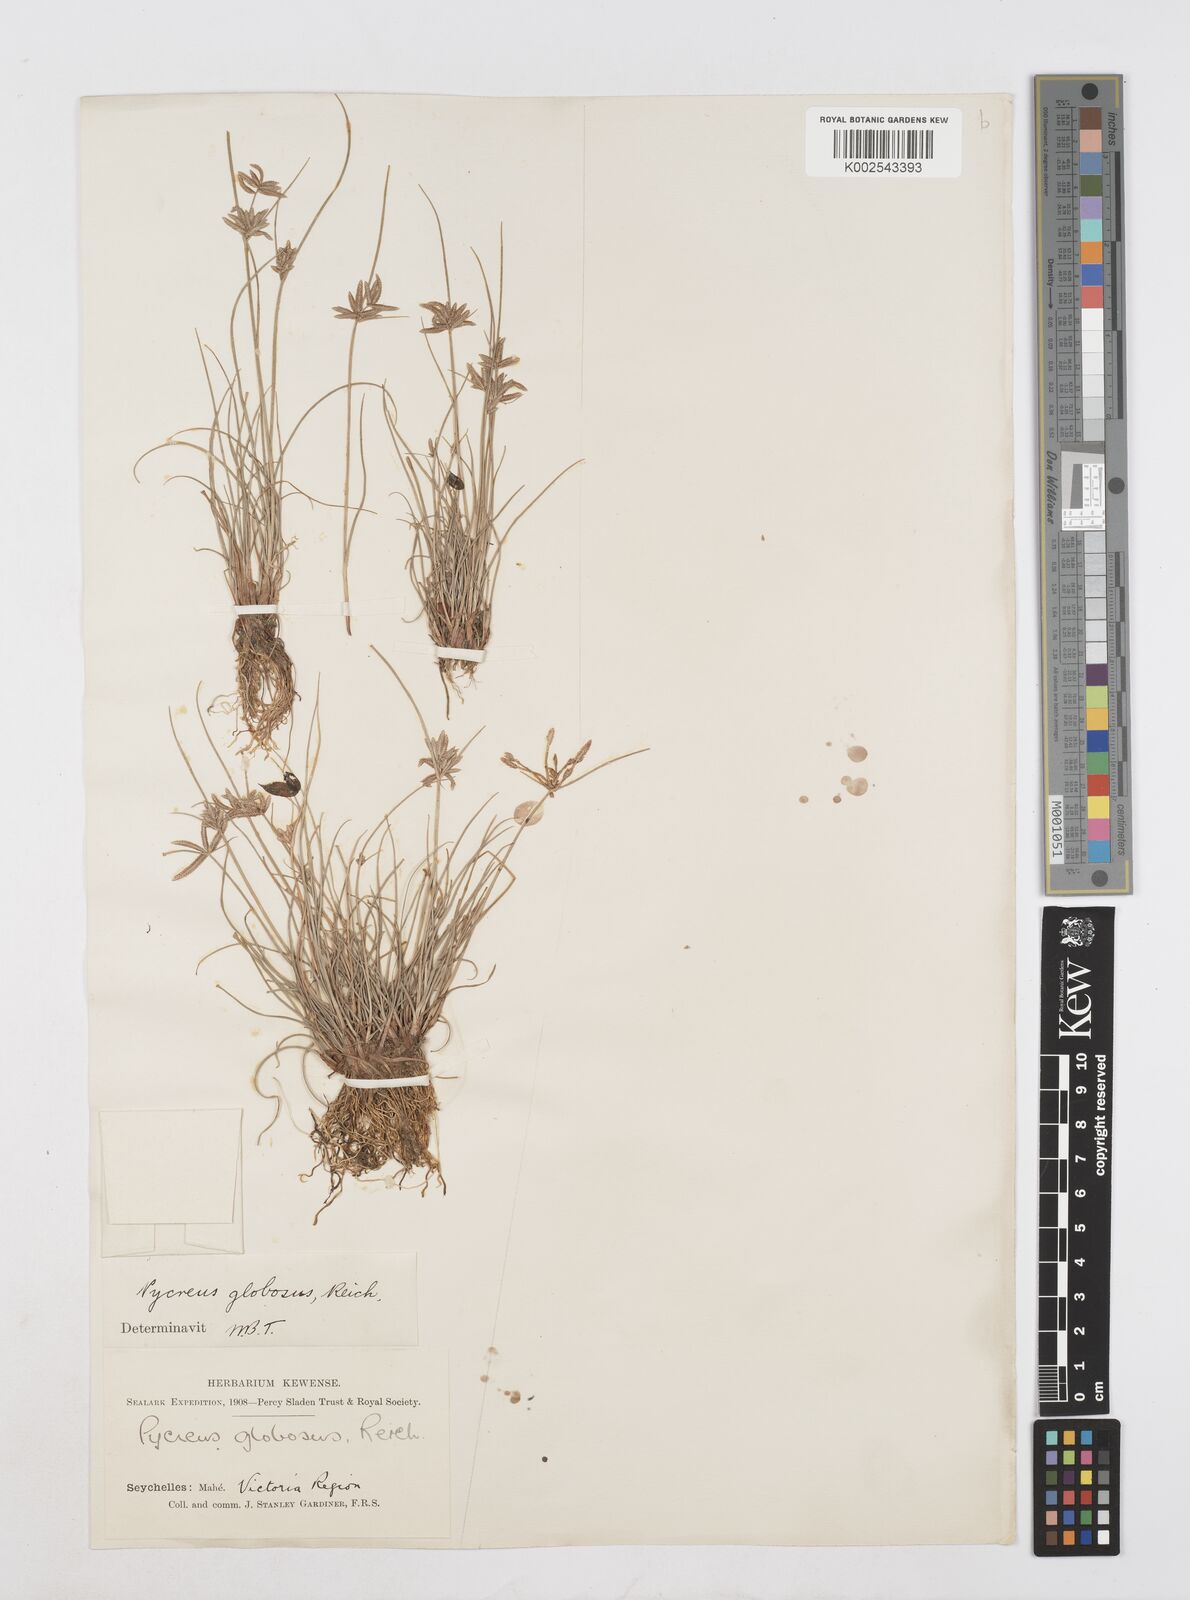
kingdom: Plantae
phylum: Tracheophyta
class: Liliopsida
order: Poales
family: Cyperaceae
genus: Cyperus
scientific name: Cyperus flavidus
